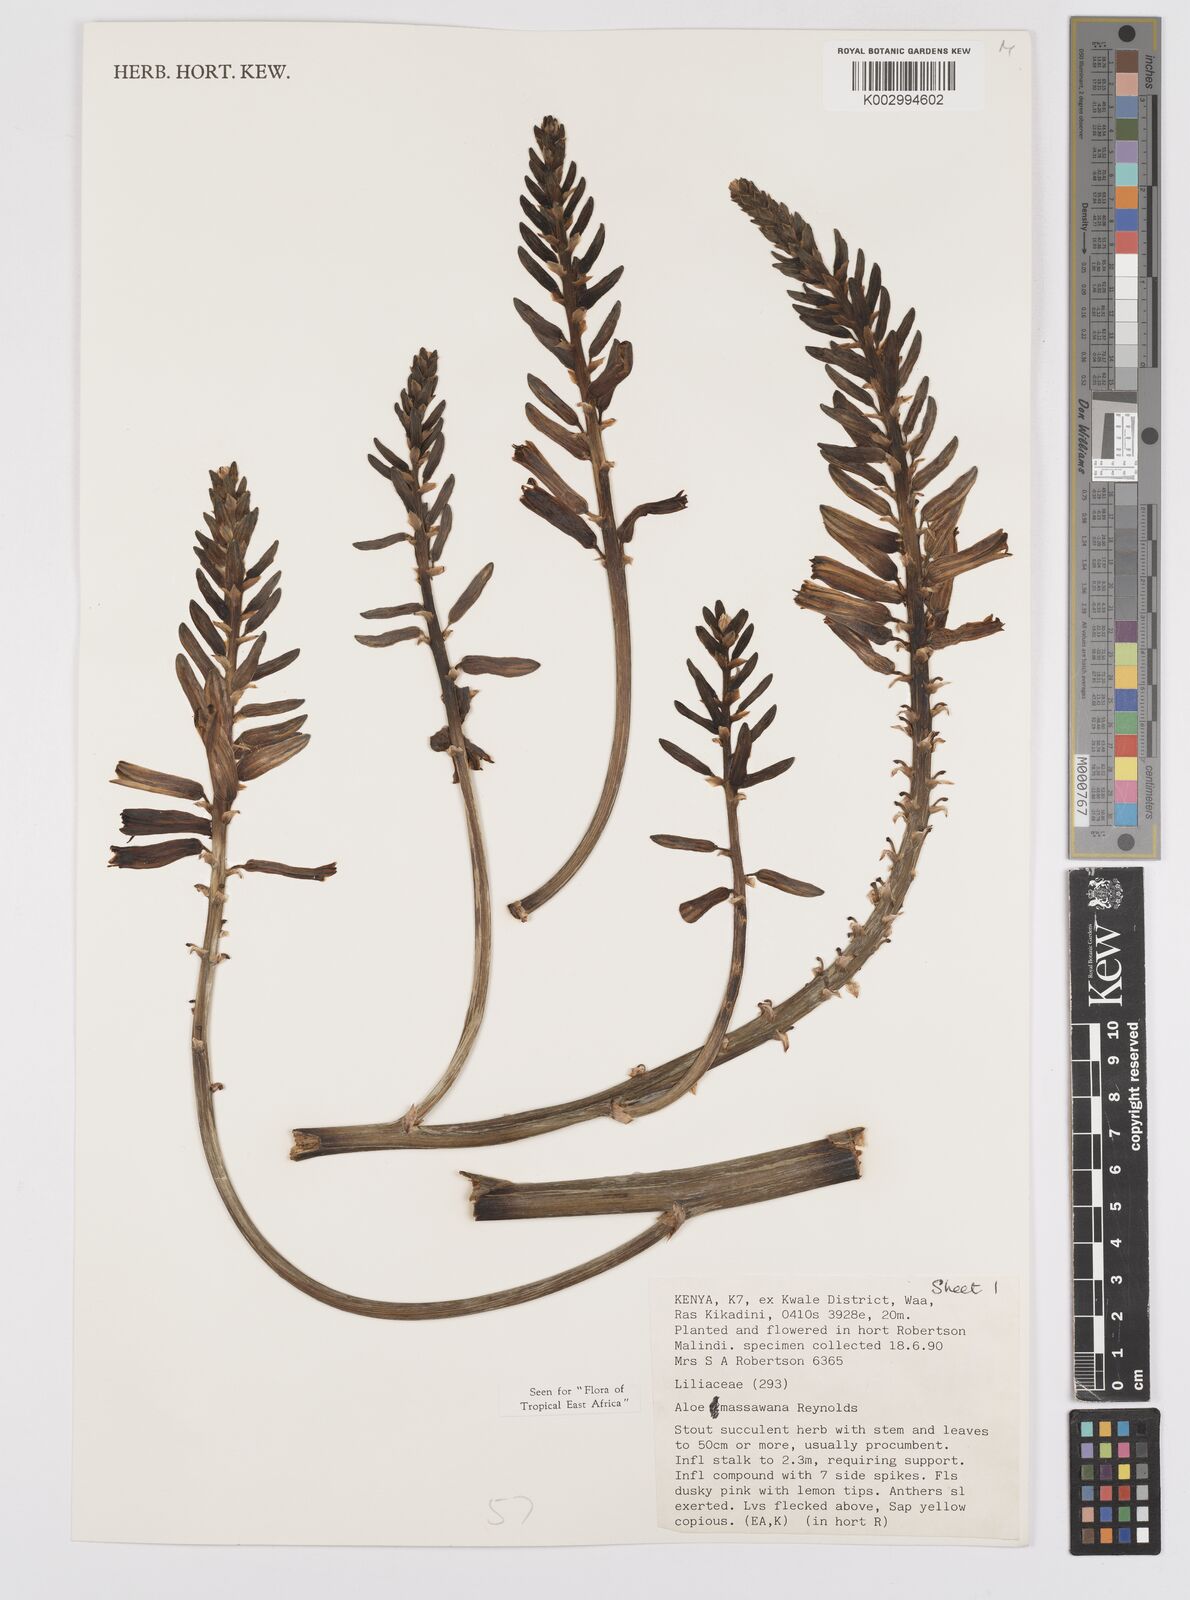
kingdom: Plantae
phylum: Tracheophyta
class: Liliopsida
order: Asparagales
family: Asphodelaceae
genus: Aloe
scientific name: Aloe massawana
